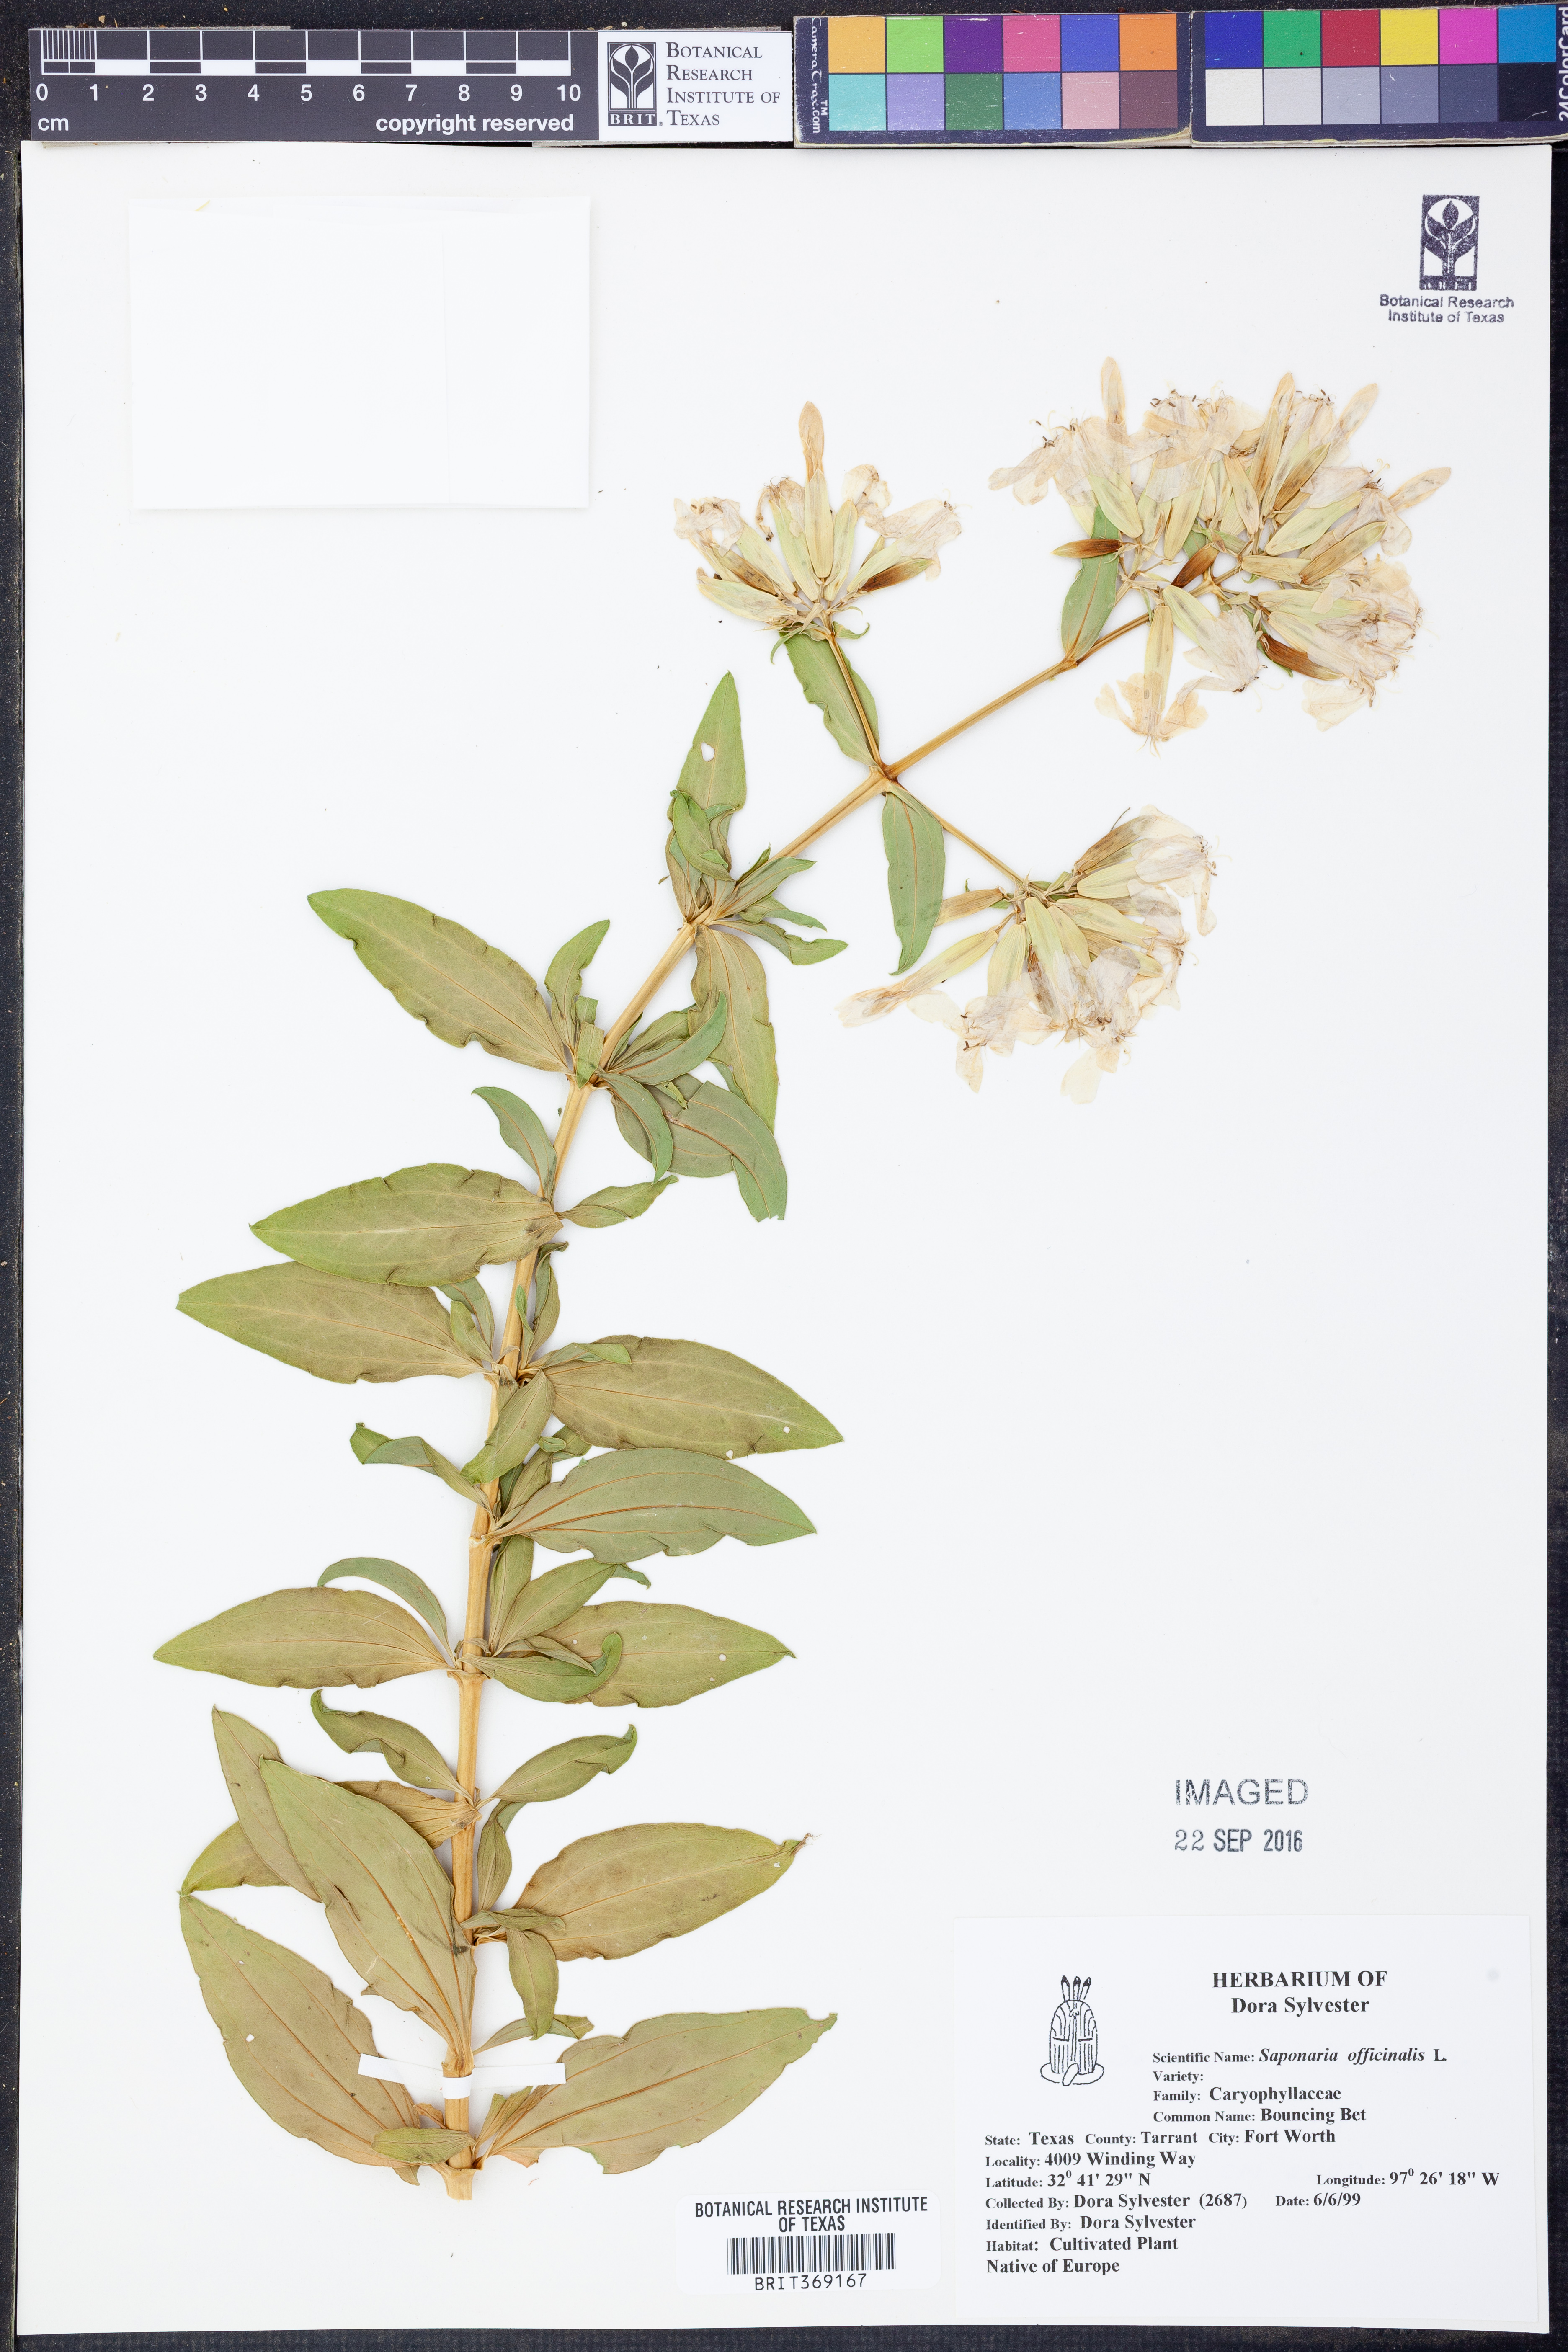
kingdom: Plantae
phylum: Tracheophyta
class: Magnoliopsida
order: Caryophyllales
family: Caryophyllaceae
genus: Saponaria
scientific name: Saponaria officinalis
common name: Soapwort
